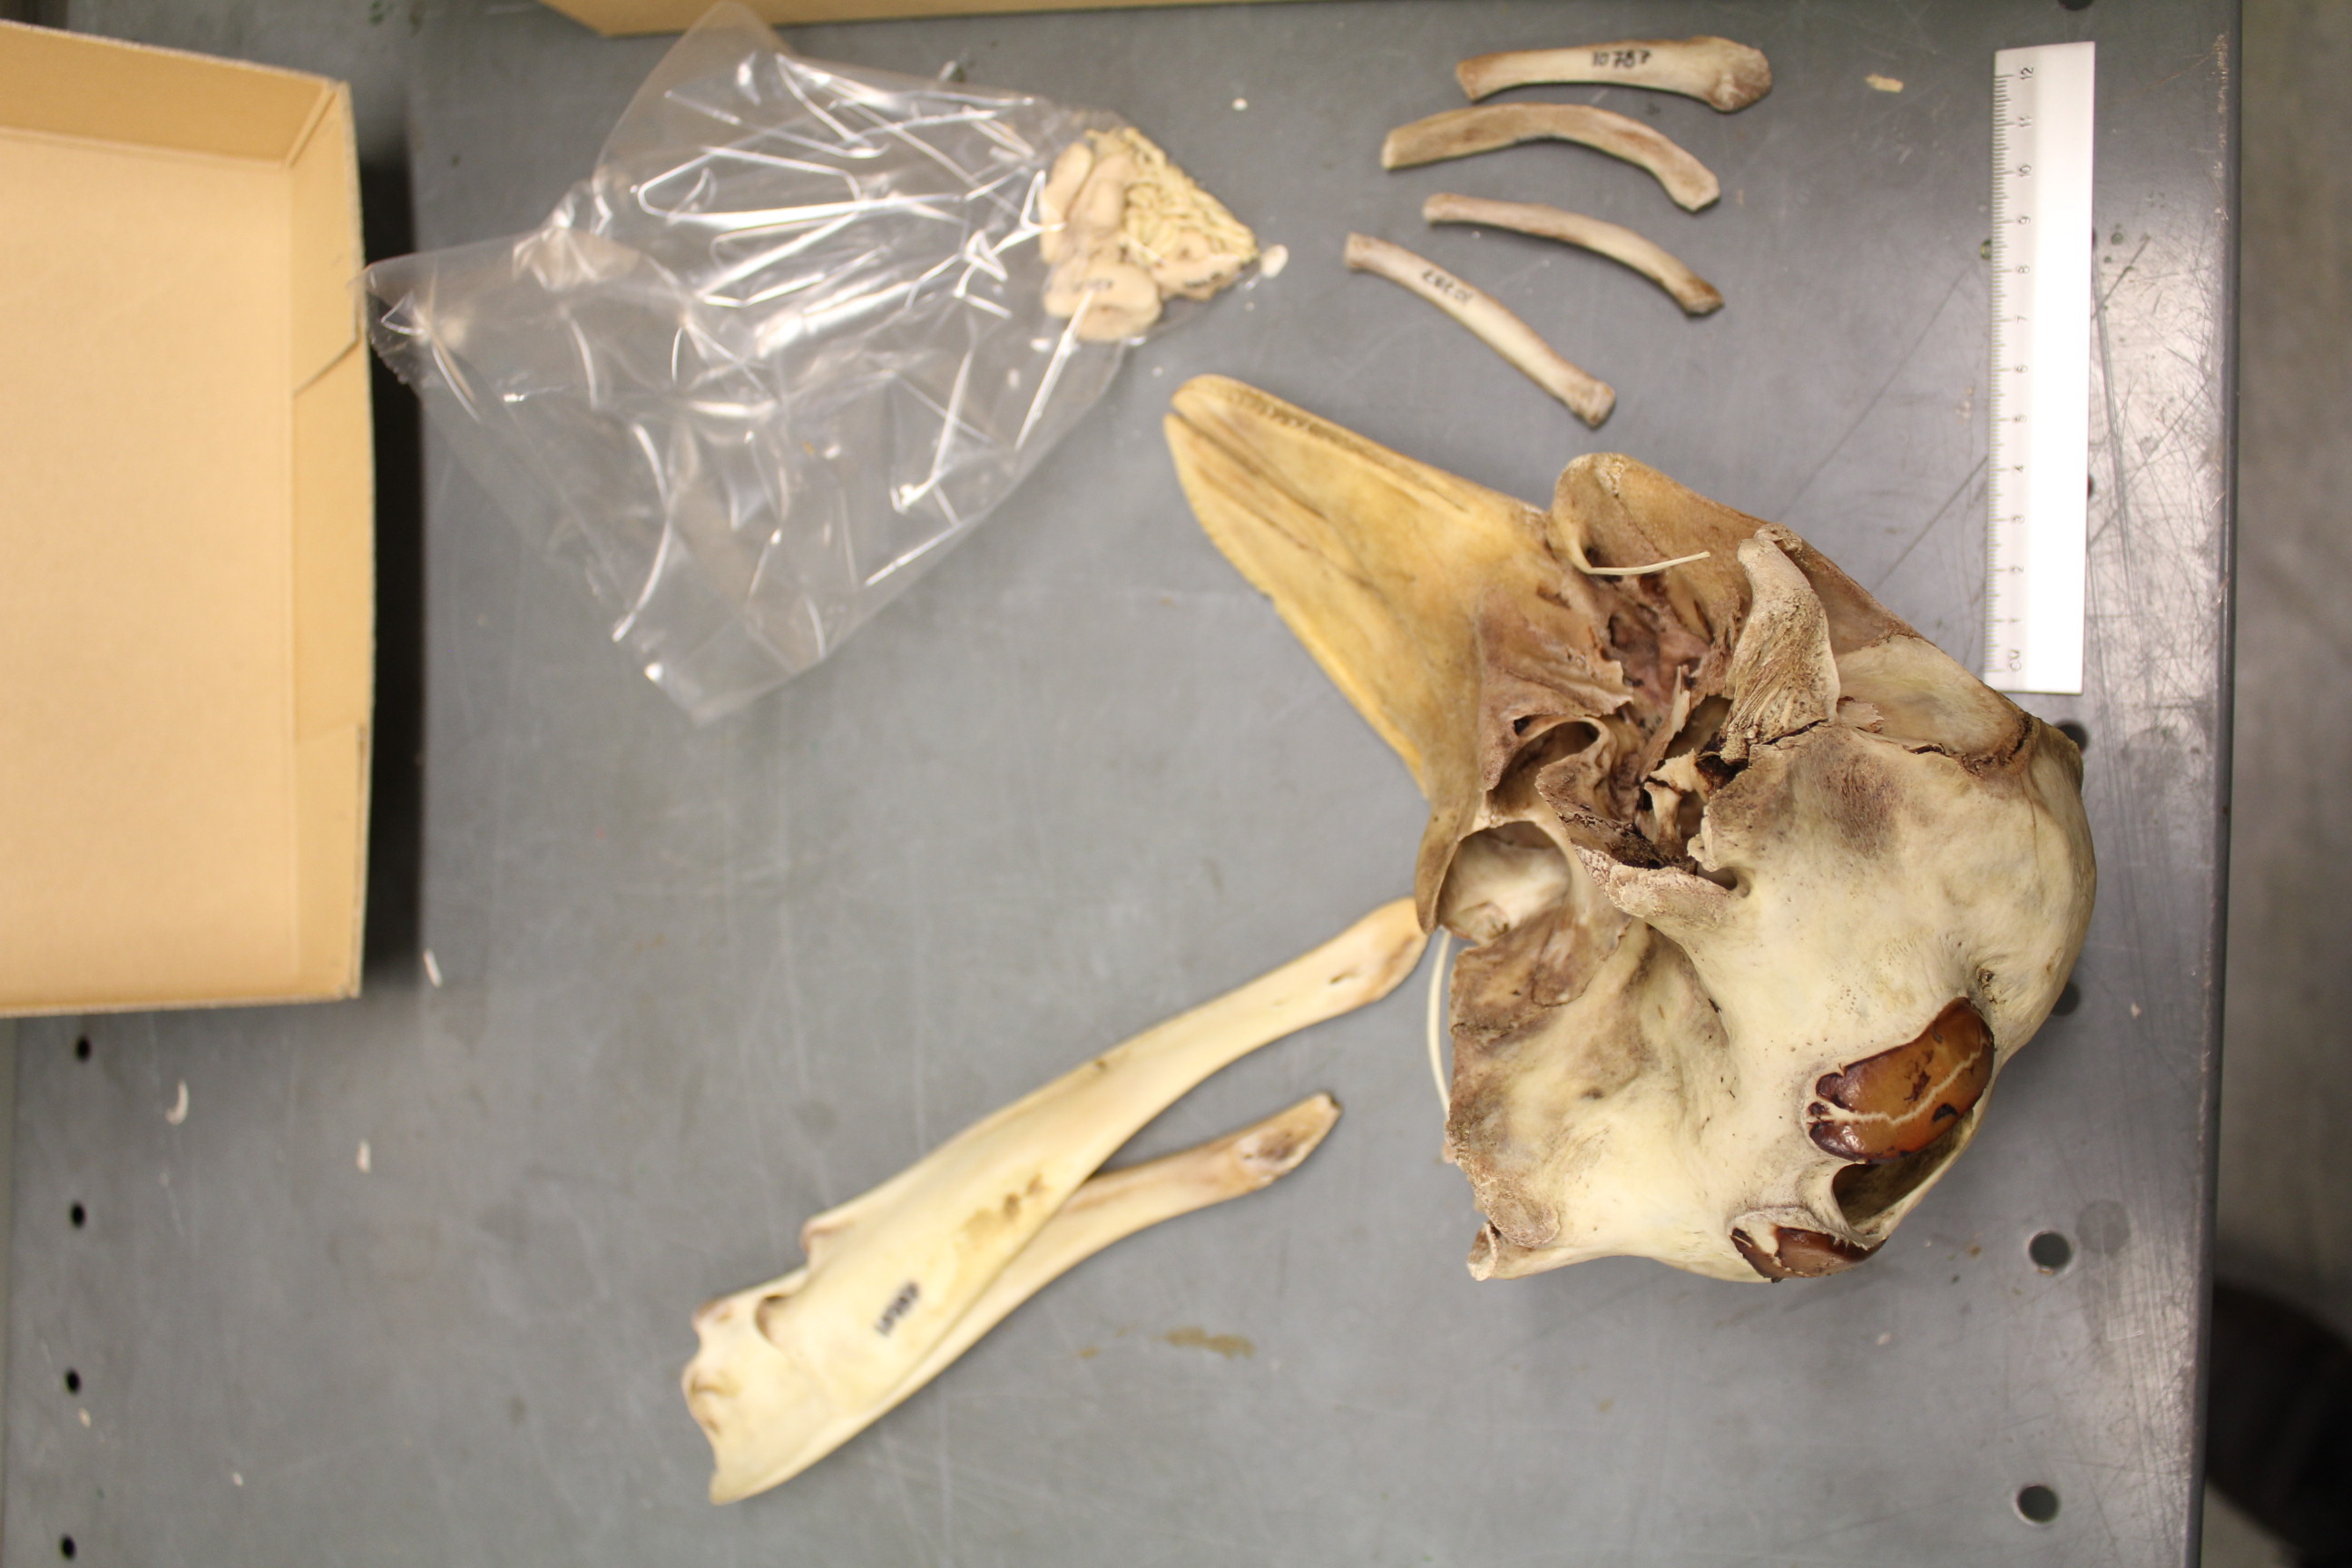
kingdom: Animalia
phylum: Chordata
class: Mammalia
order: Cetacea
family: Phocoenidae
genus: Phocoena
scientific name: Phocoena phocoena
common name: Harbor porpoise
